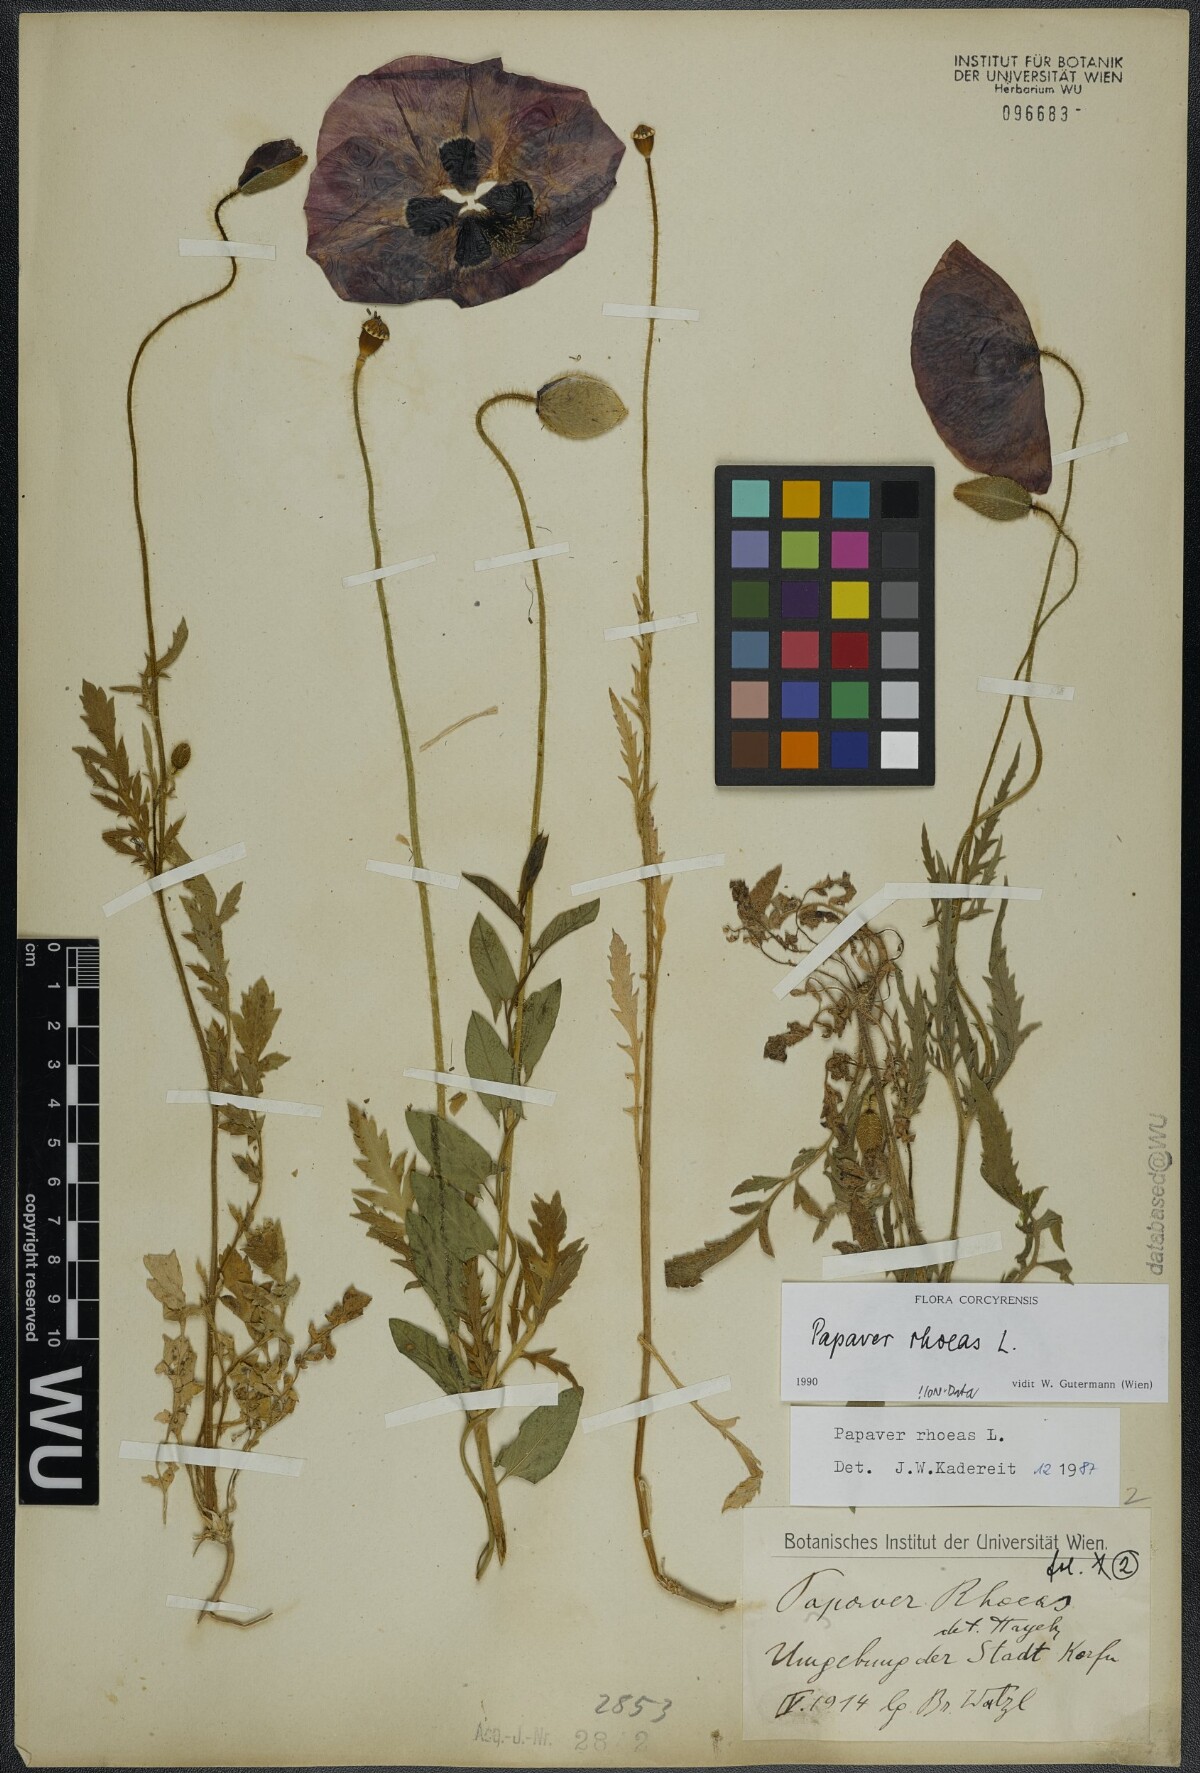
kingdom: Plantae
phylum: Tracheophyta
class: Magnoliopsida
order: Ranunculales
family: Papaveraceae
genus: Papaver
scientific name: Papaver rhoeas
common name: Corn poppy
